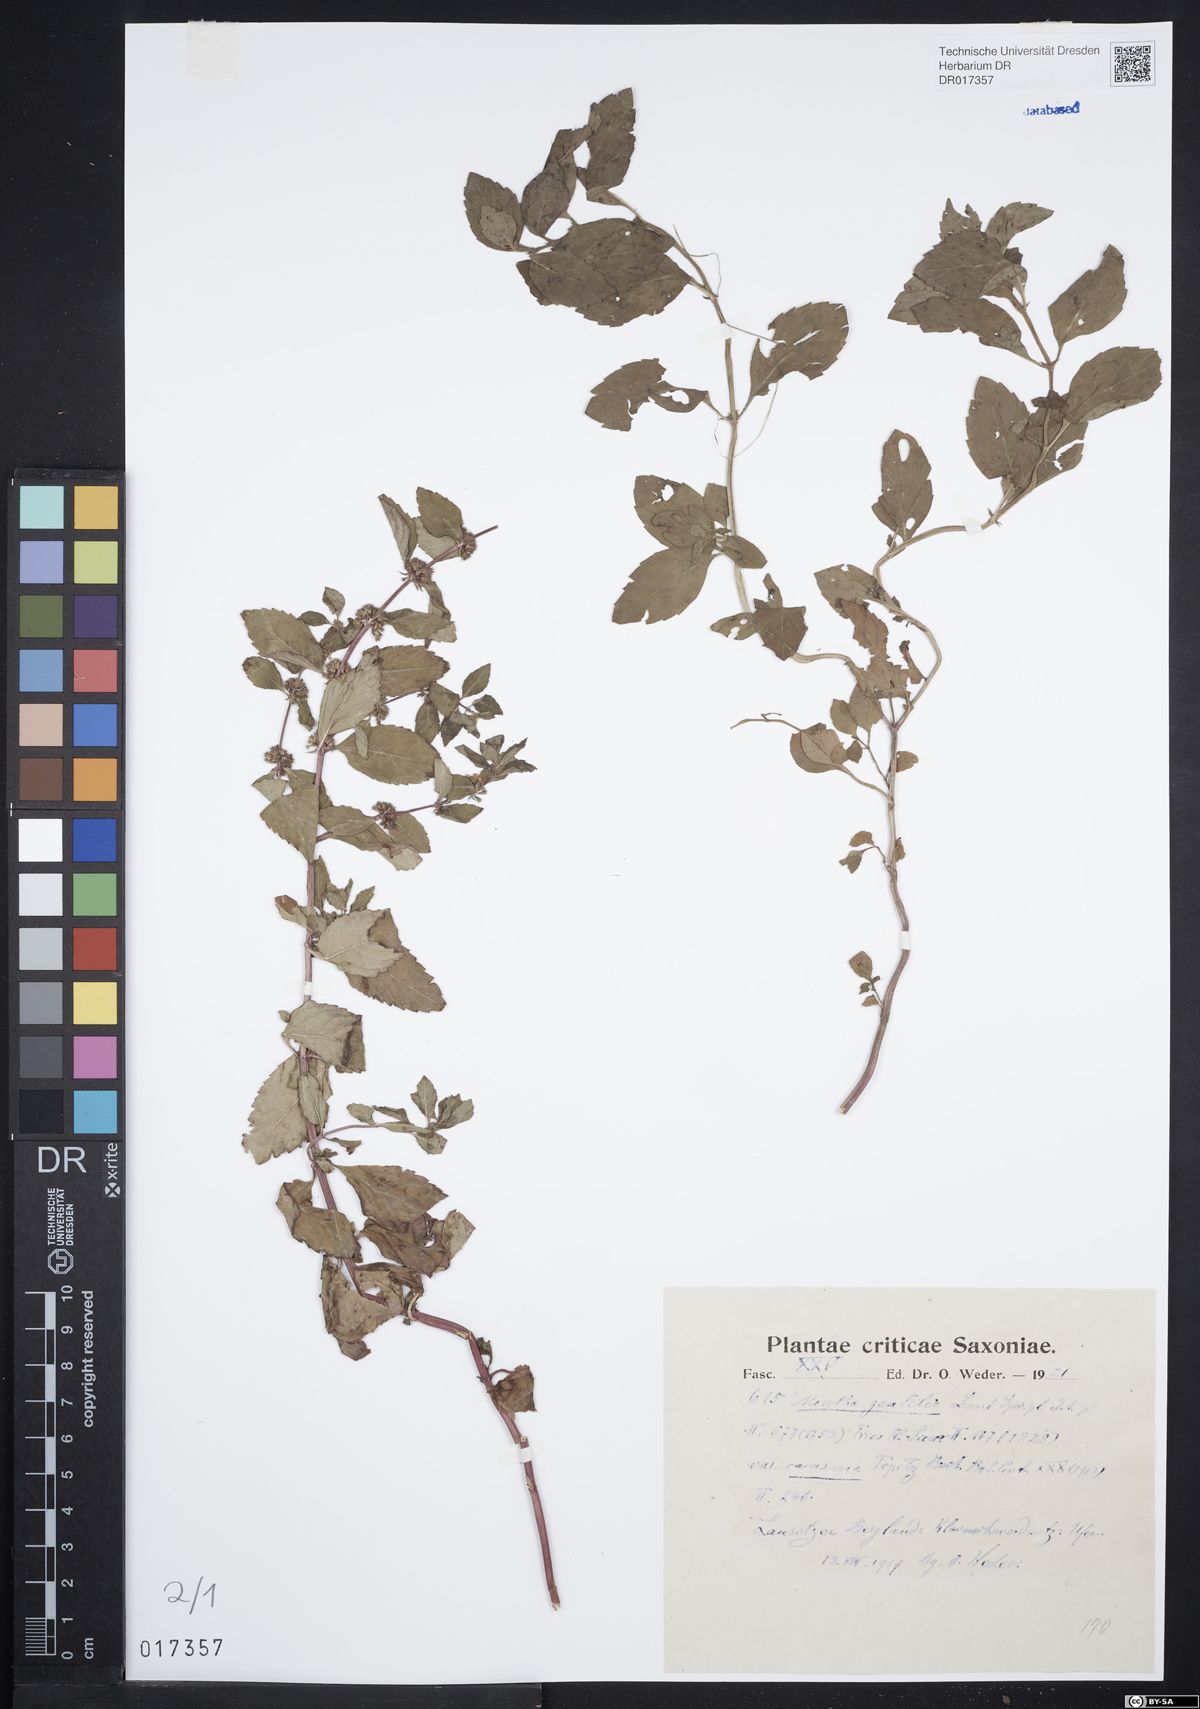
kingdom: Plantae
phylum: Tracheophyta
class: Magnoliopsida
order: Lamiales
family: Lamiaceae
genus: Mentha
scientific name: Mentha gracilis
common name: Bushy mint
